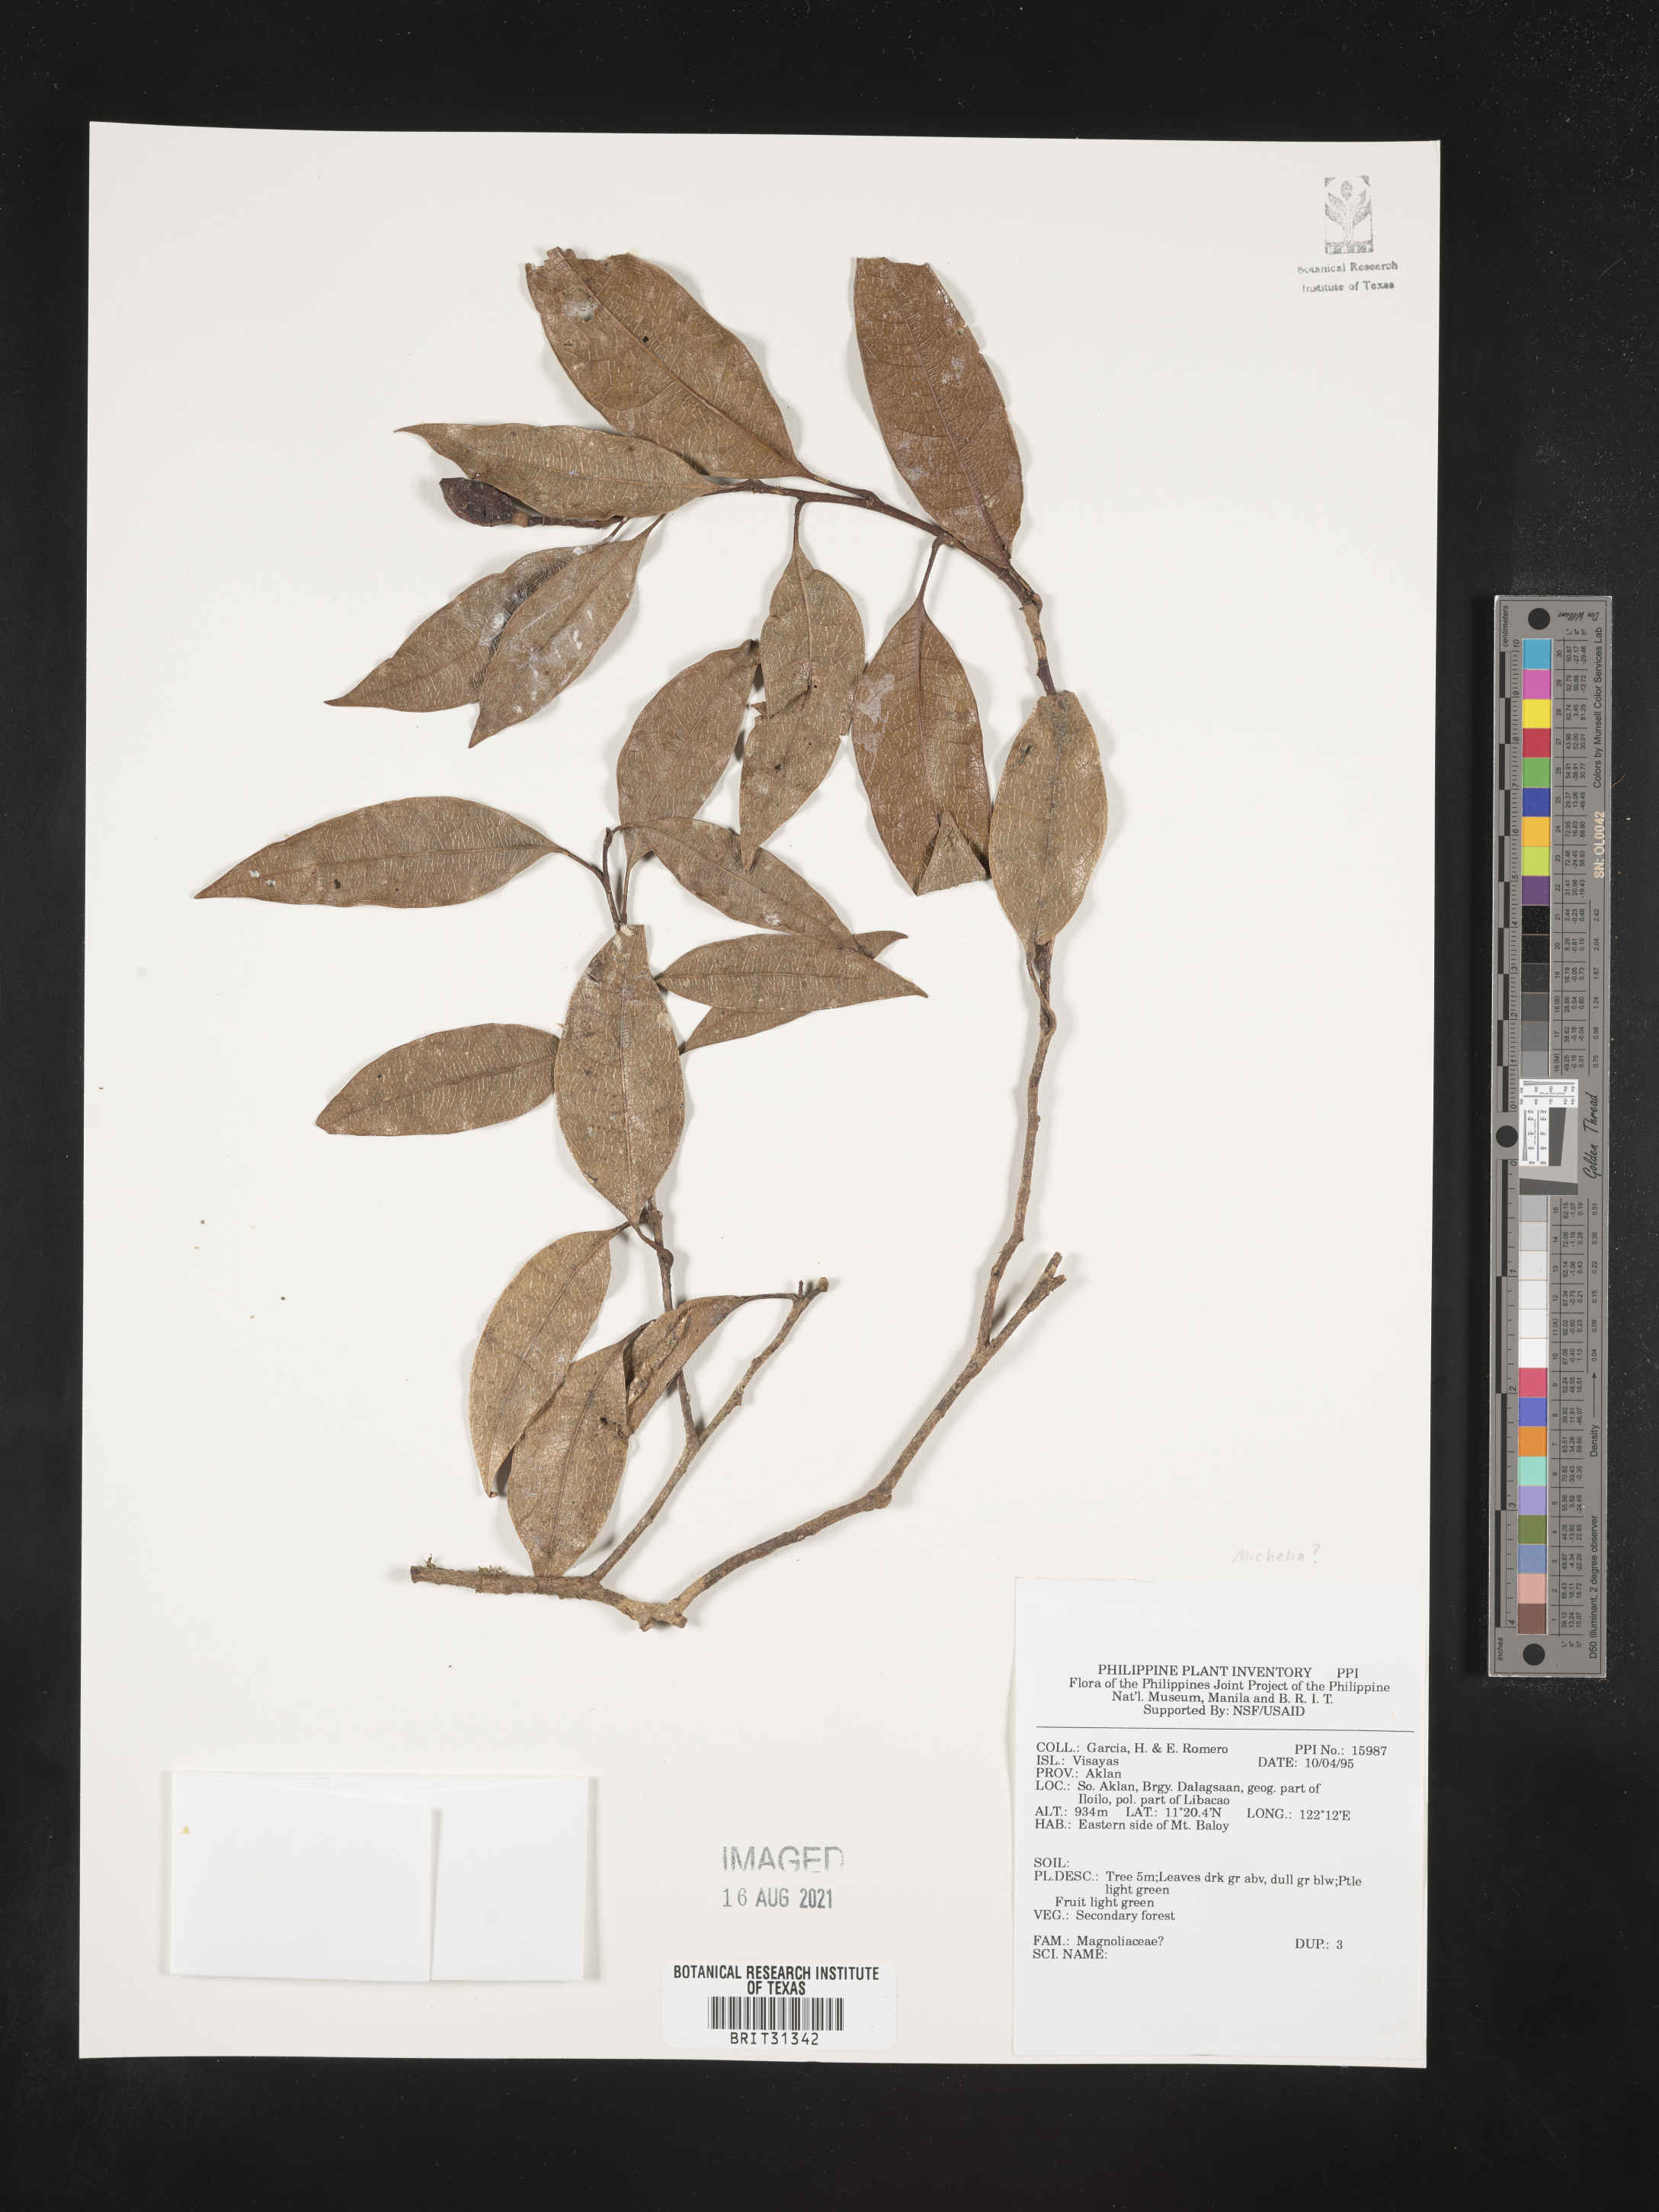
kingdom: Plantae
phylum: Tracheophyta
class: Magnoliopsida
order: Magnoliales
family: Magnoliaceae
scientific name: Magnoliaceae
